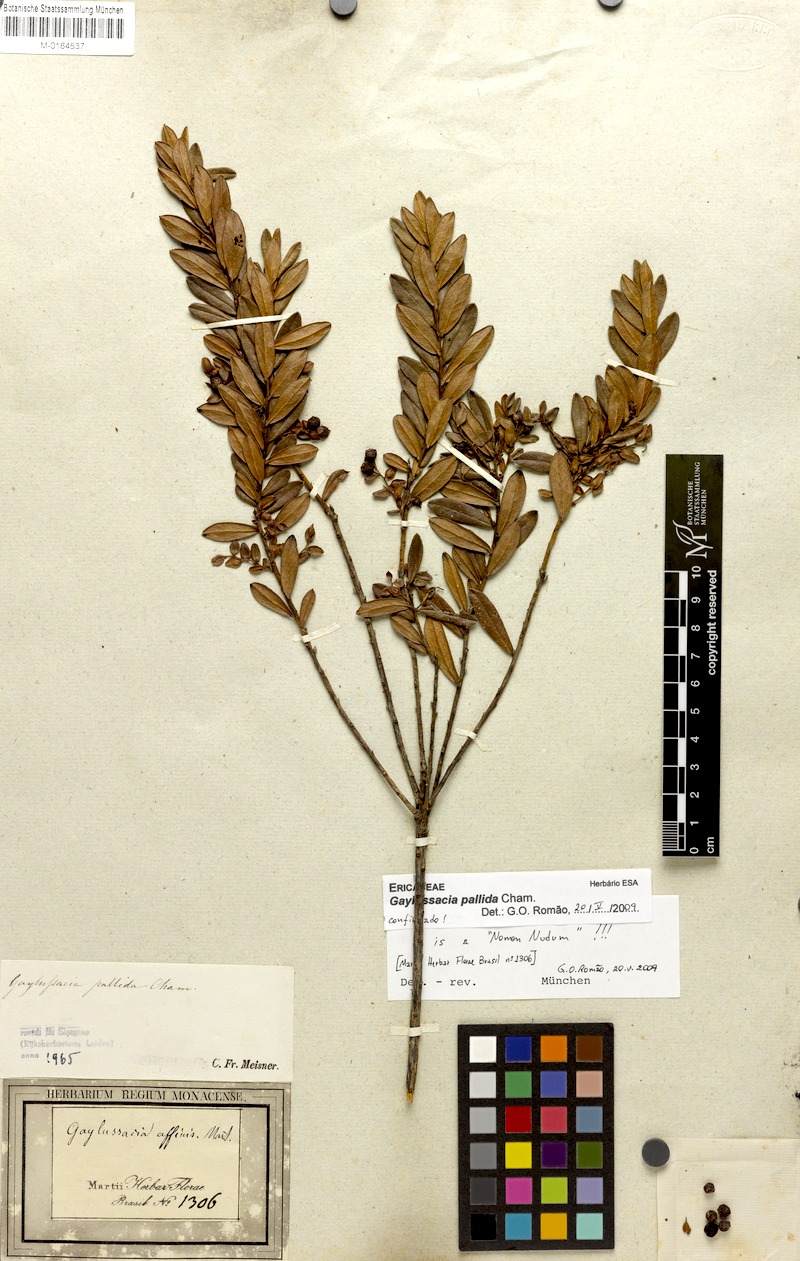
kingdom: Plantae
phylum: Tracheophyta
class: Magnoliopsida
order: Ericales
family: Ericaceae
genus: Gaylussacia
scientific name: Gaylussacia pallida
